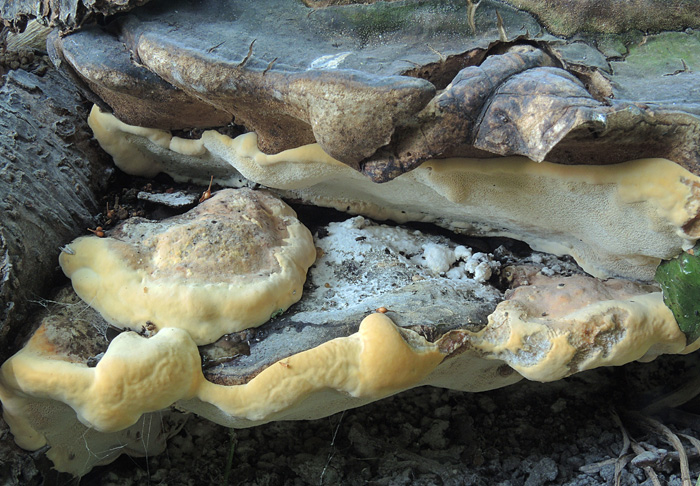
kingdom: Fungi
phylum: Basidiomycota
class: Agaricomycetes
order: Polyporales
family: Polyporaceae
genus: Vanderbylia
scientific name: Vanderbylia fraxinea
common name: stor kanelporesvamp
